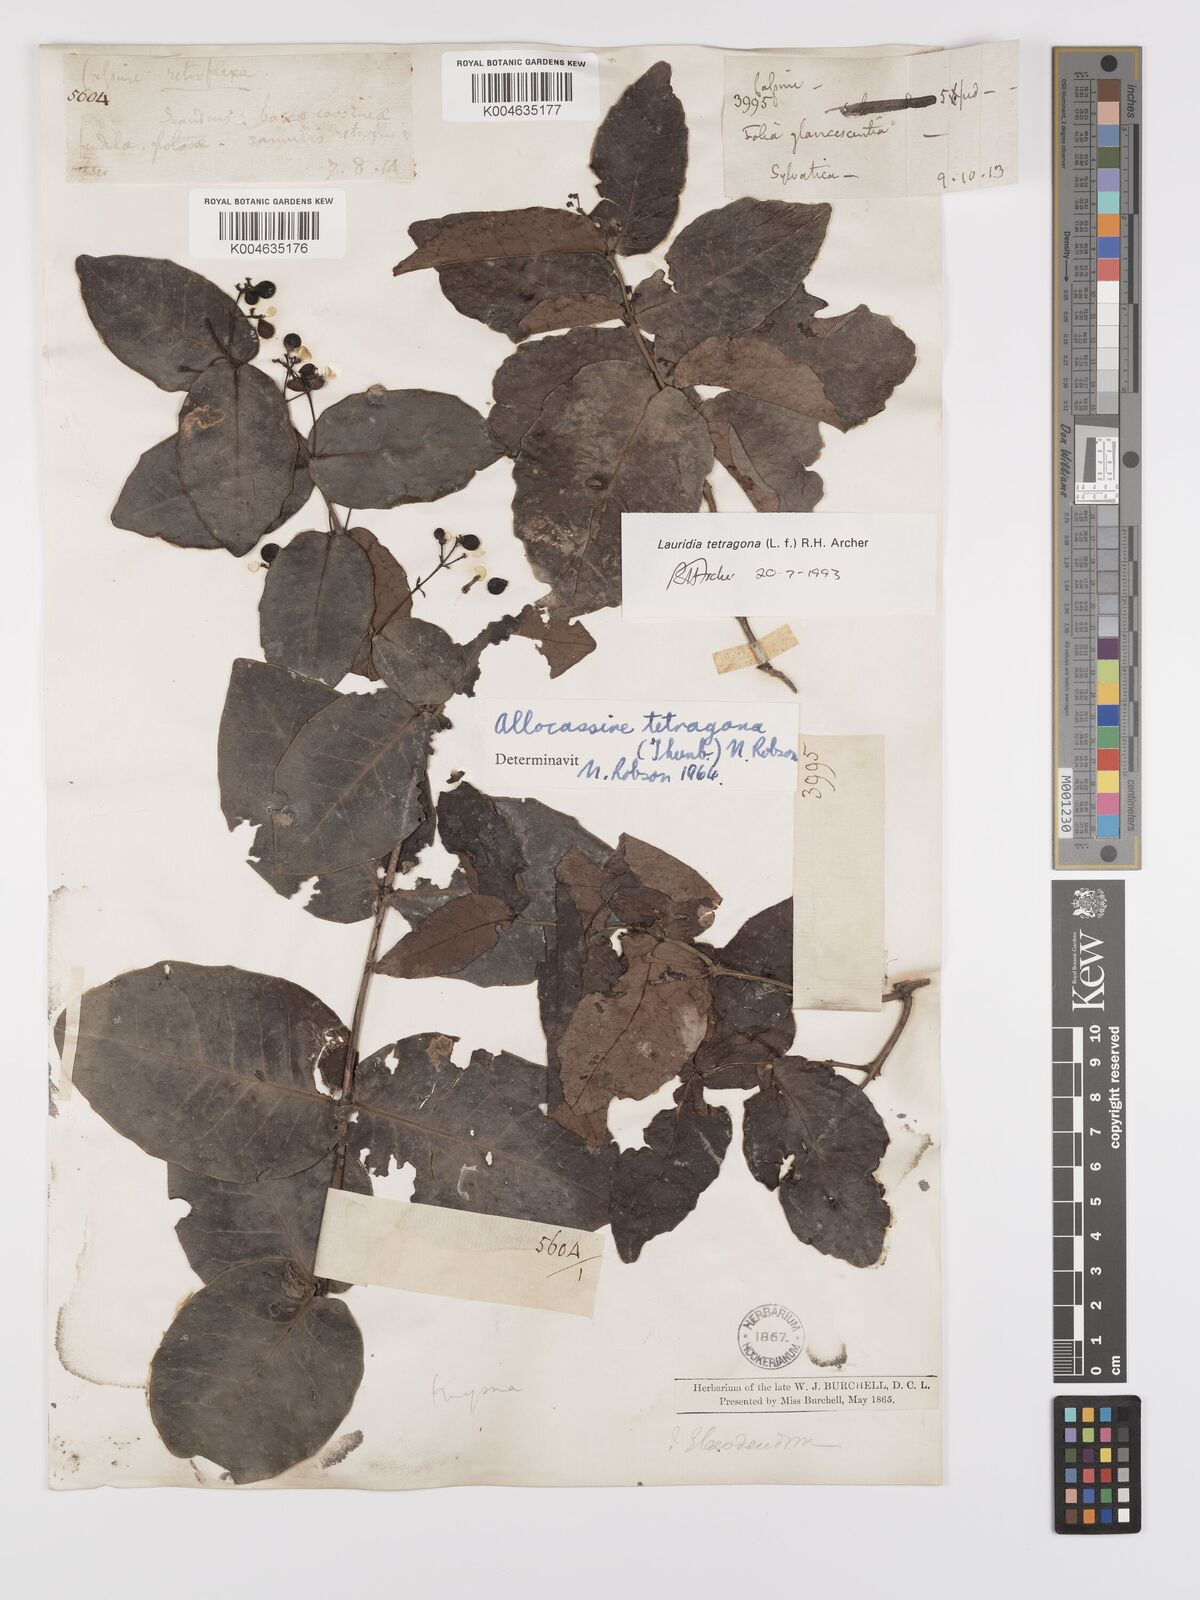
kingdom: Plantae
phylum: Tracheophyta
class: Magnoliopsida
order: Celastrales
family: Celastraceae
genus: Lauridia
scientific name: Lauridia tetragona
